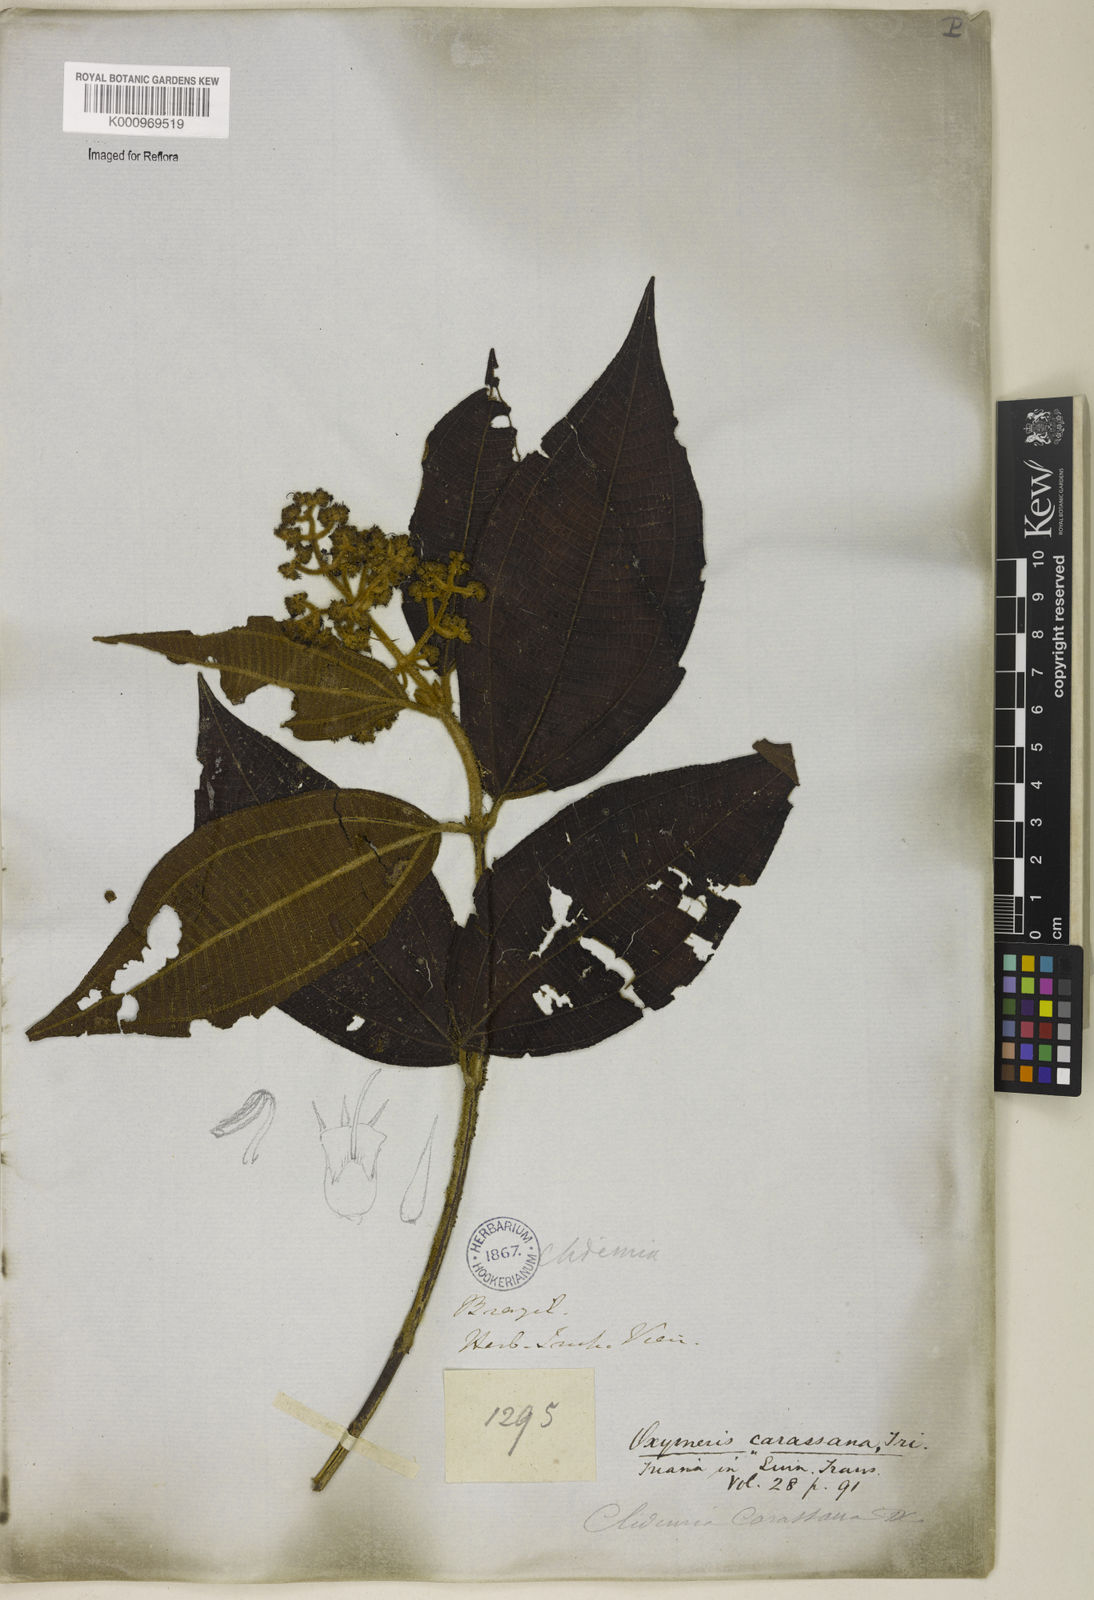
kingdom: Plantae
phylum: Tracheophyta
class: Magnoliopsida
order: Myrtales
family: Melastomataceae
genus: Miconia
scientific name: Miconia sublanata
